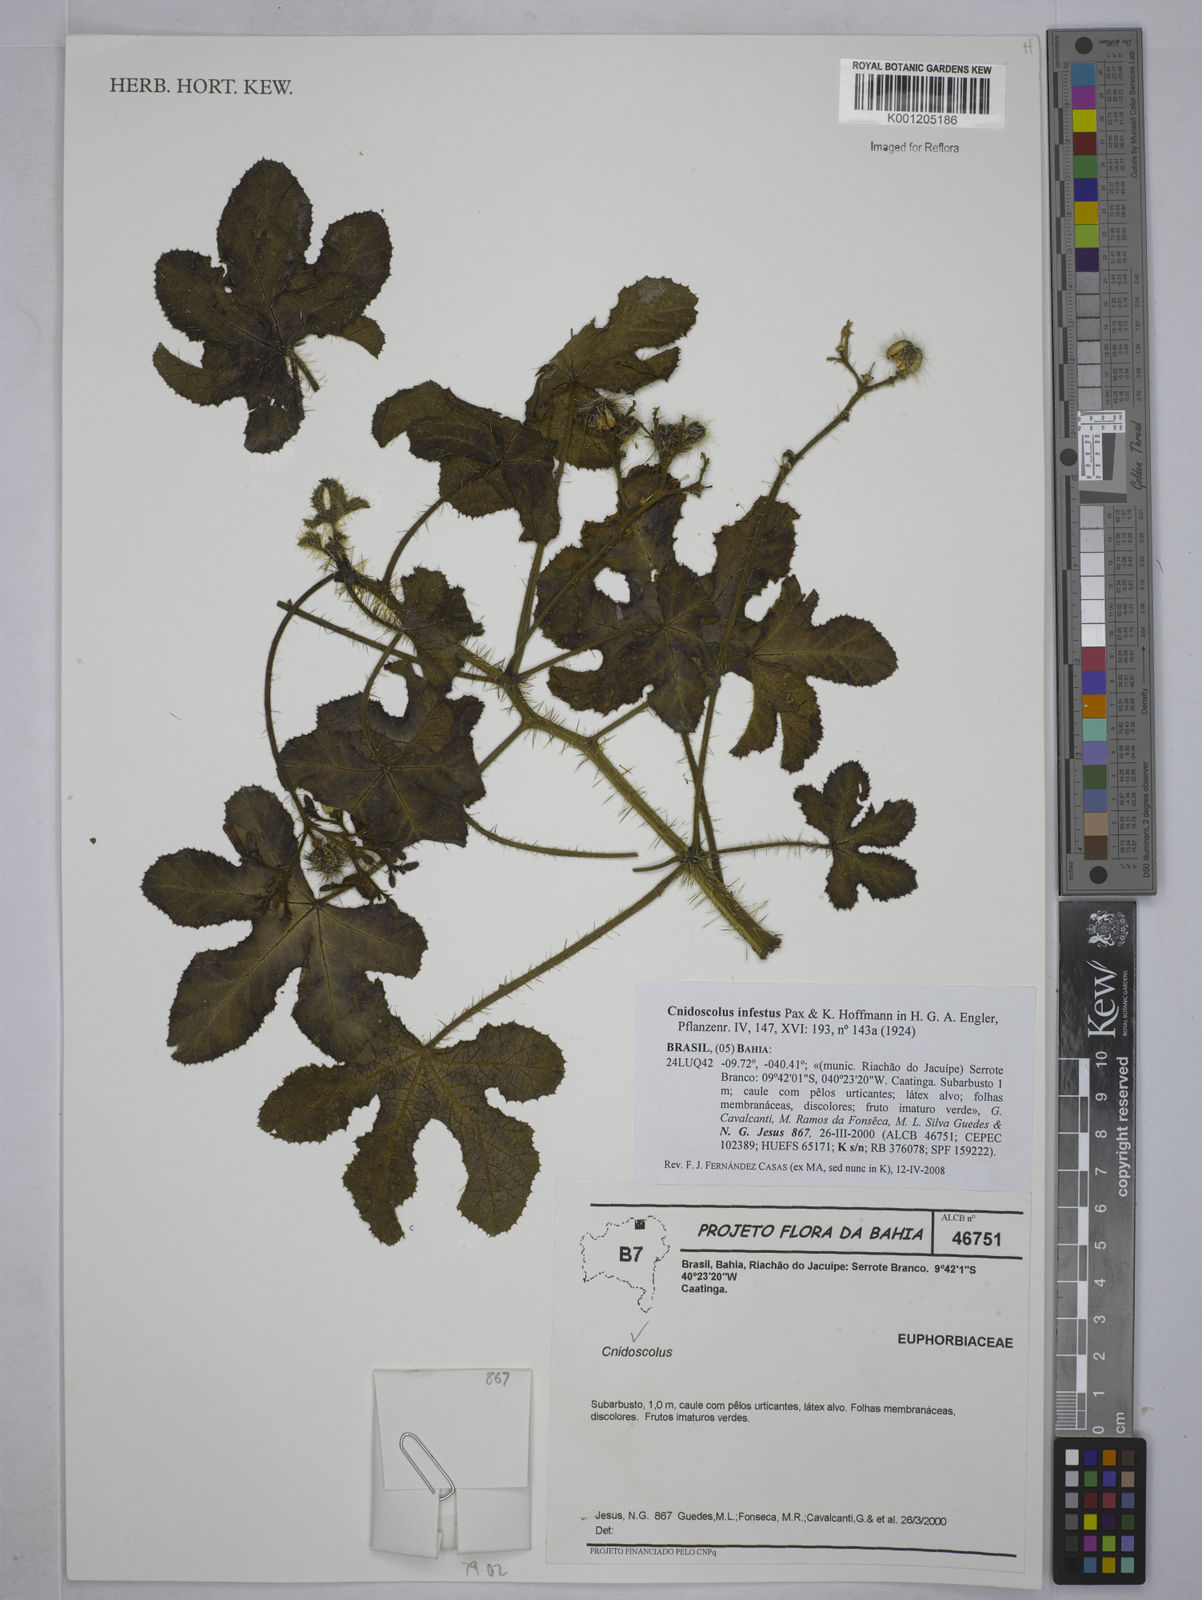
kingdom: Plantae
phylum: Tracheophyta
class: Magnoliopsida
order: Malpighiales
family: Euphorbiaceae
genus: Cnidoscolus
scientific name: Cnidoscolus infestus
